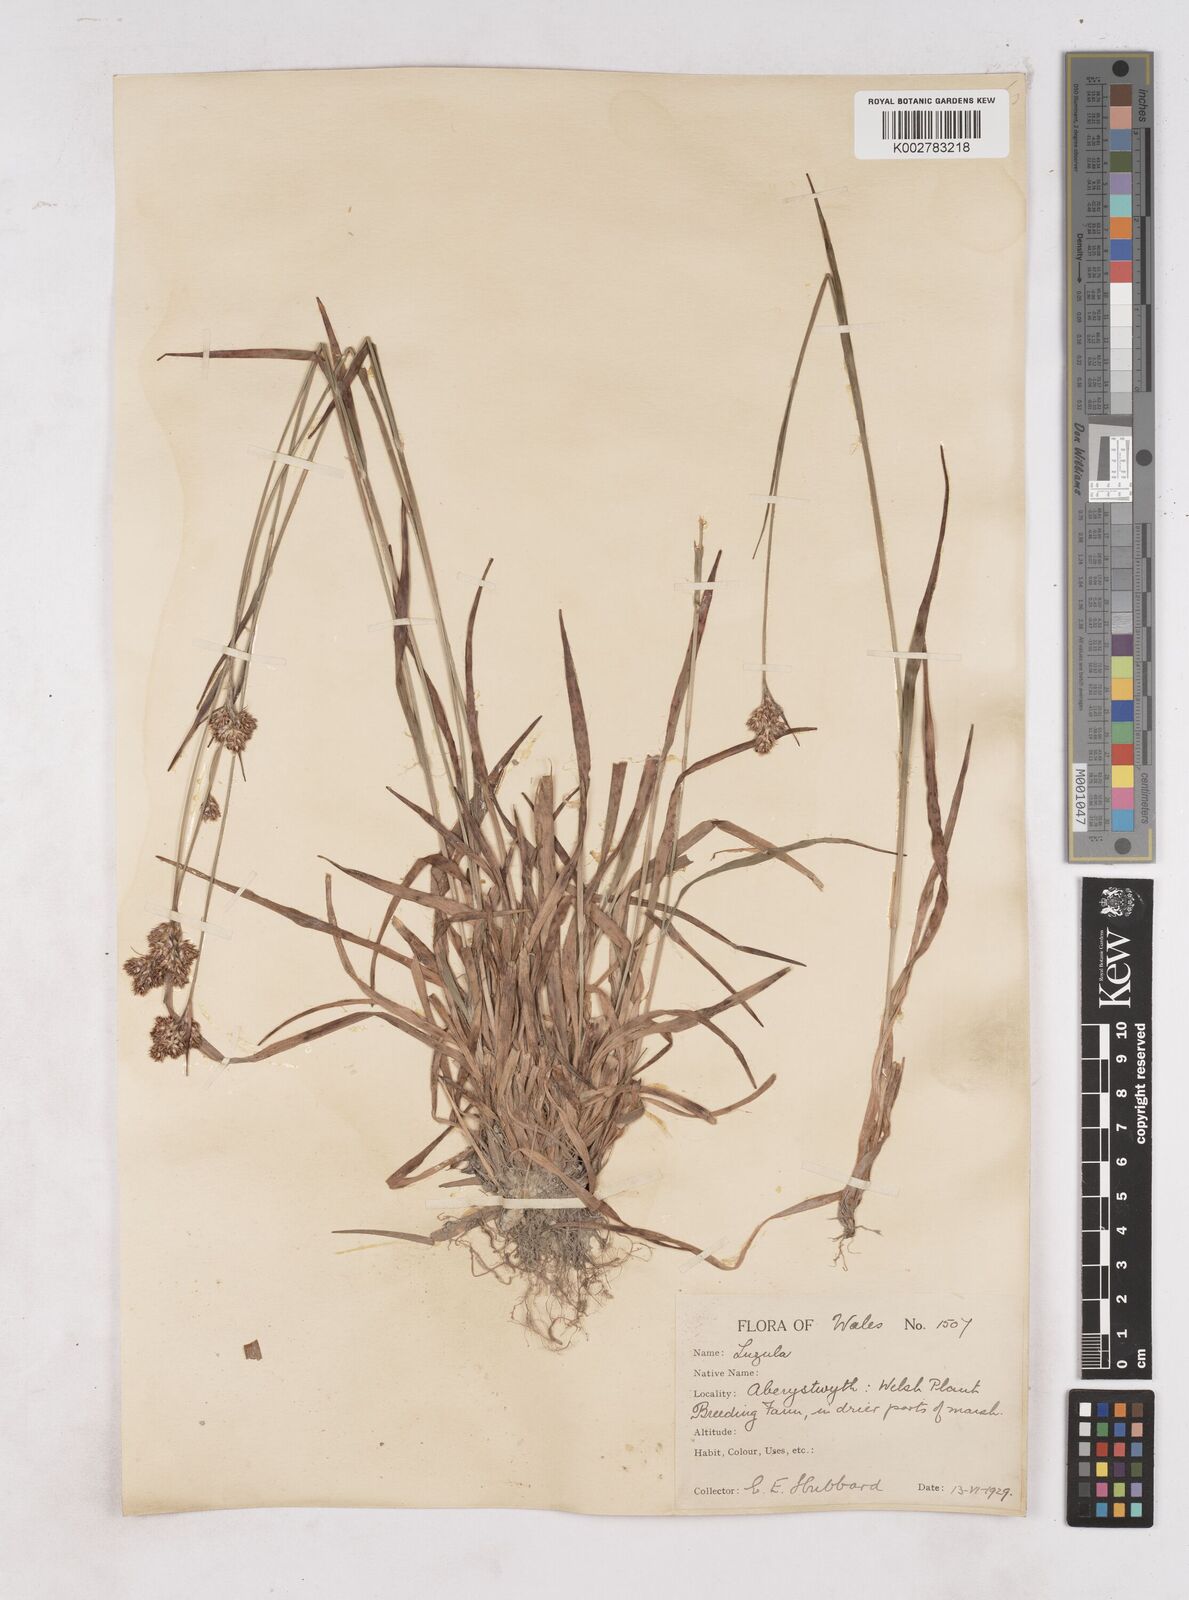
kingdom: Plantae
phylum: Tracheophyta
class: Liliopsida
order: Poales
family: Juncaceae
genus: Luzula
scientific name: Luzula multiflora
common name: Heath wood-rush
